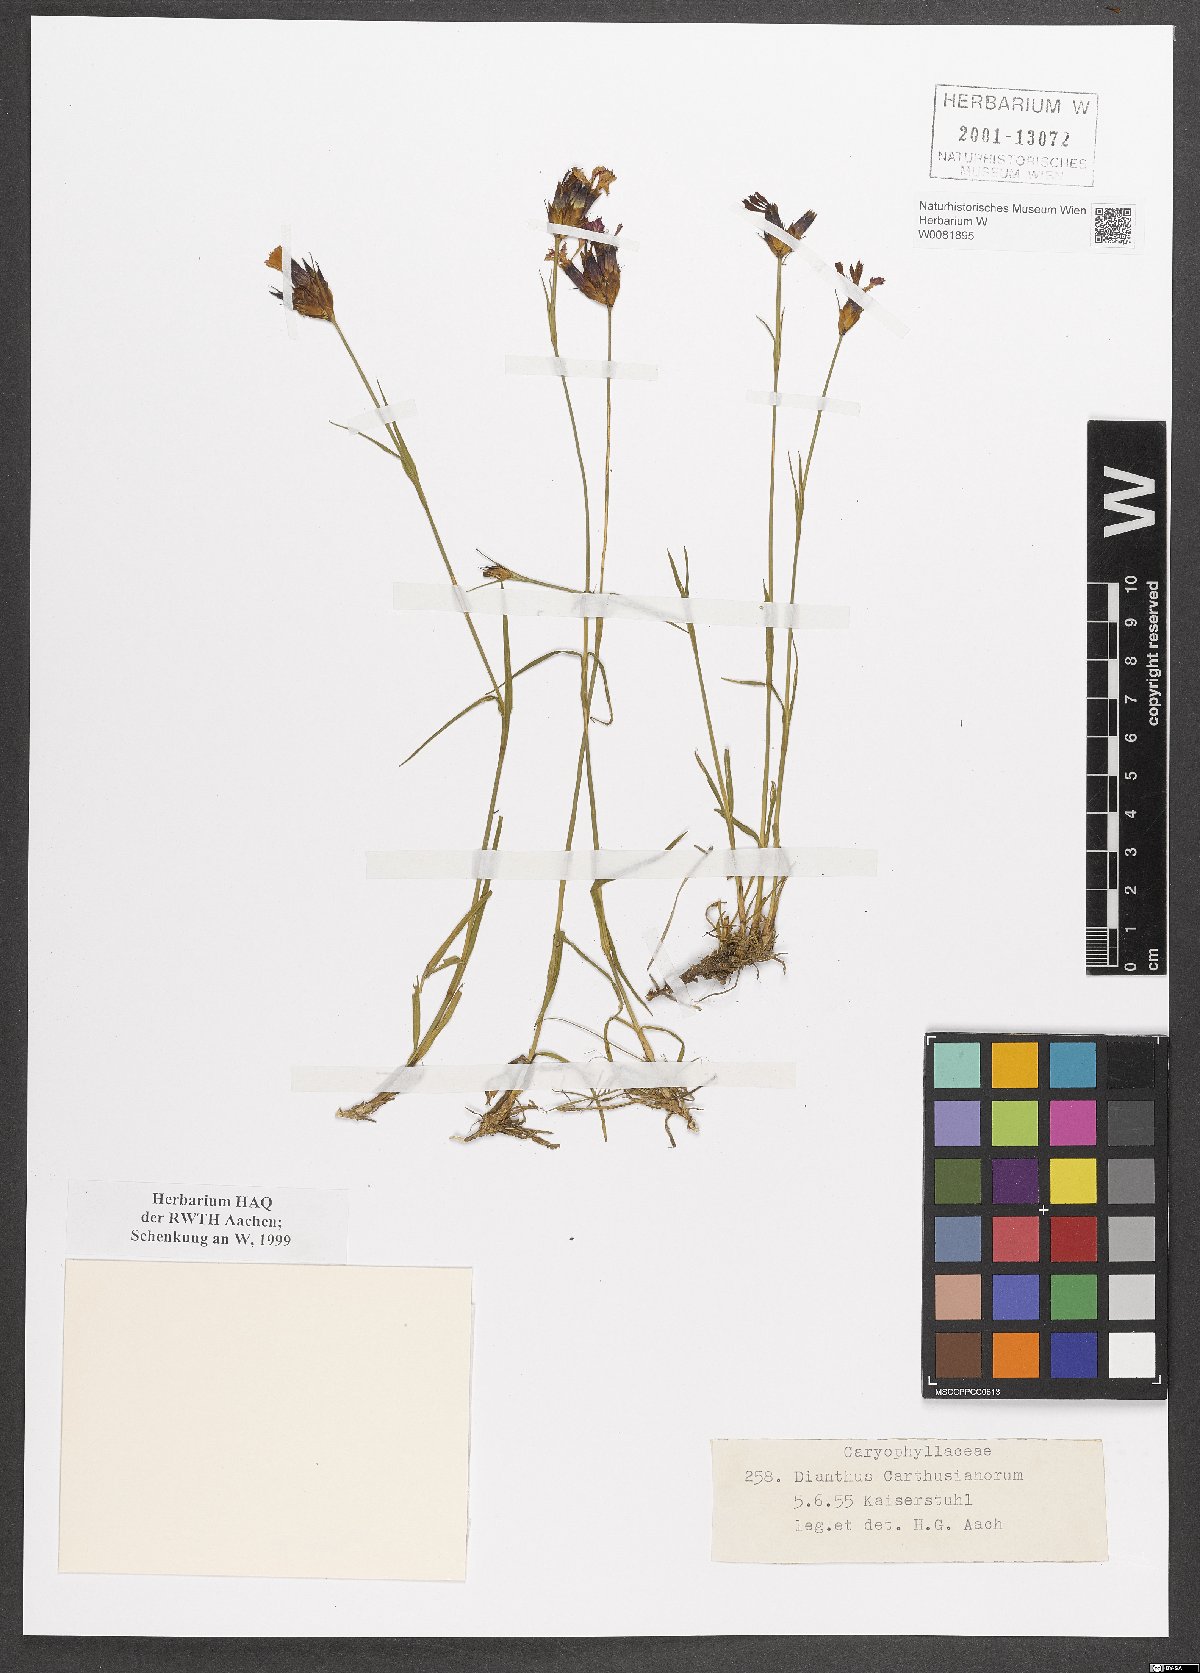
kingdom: Plantae
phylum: Tracheophyta
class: Magnoliopsida
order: Caryophyllales
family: Caryophyllaceae
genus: Dianthus
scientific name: Dianthus carthusianorum
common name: Carthusian pink
